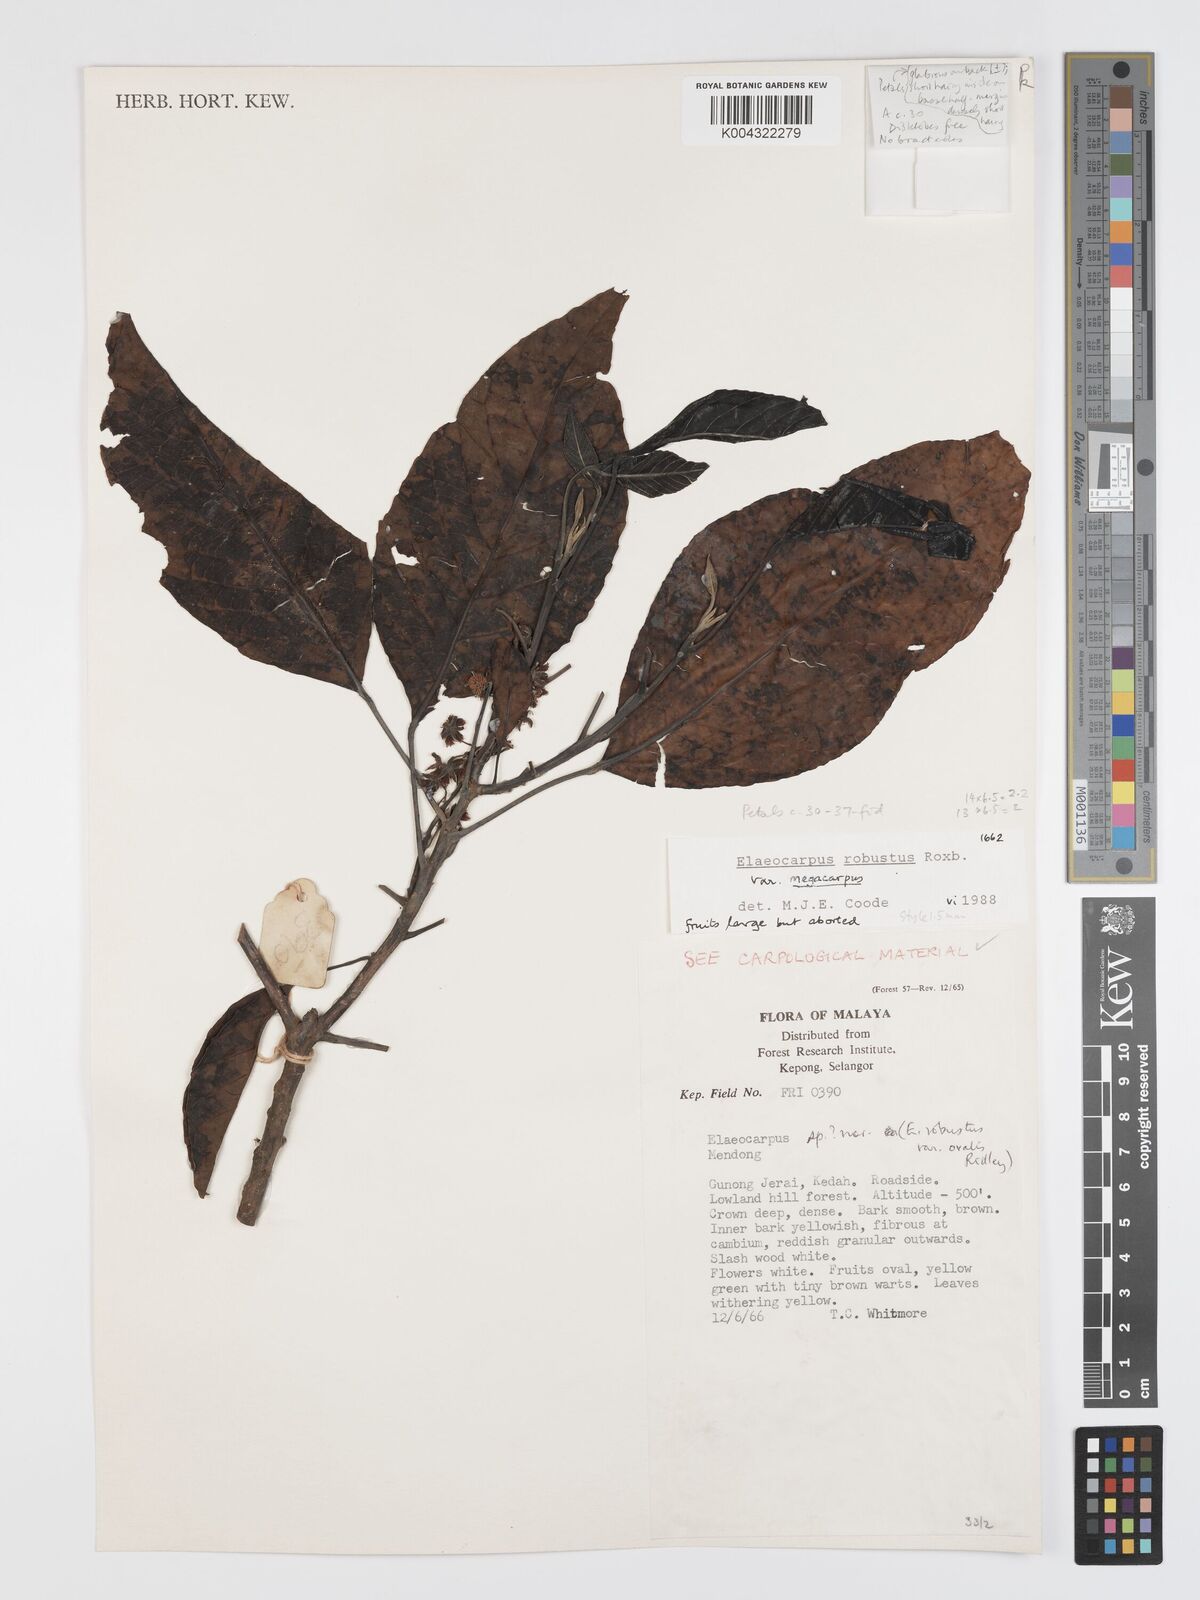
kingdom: Plantae
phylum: Tracheophyta
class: Magnoliopsida
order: Oxalidales
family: Elaeocarpaceae
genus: Elaeocarpus
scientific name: Elaeocarpus robustus
